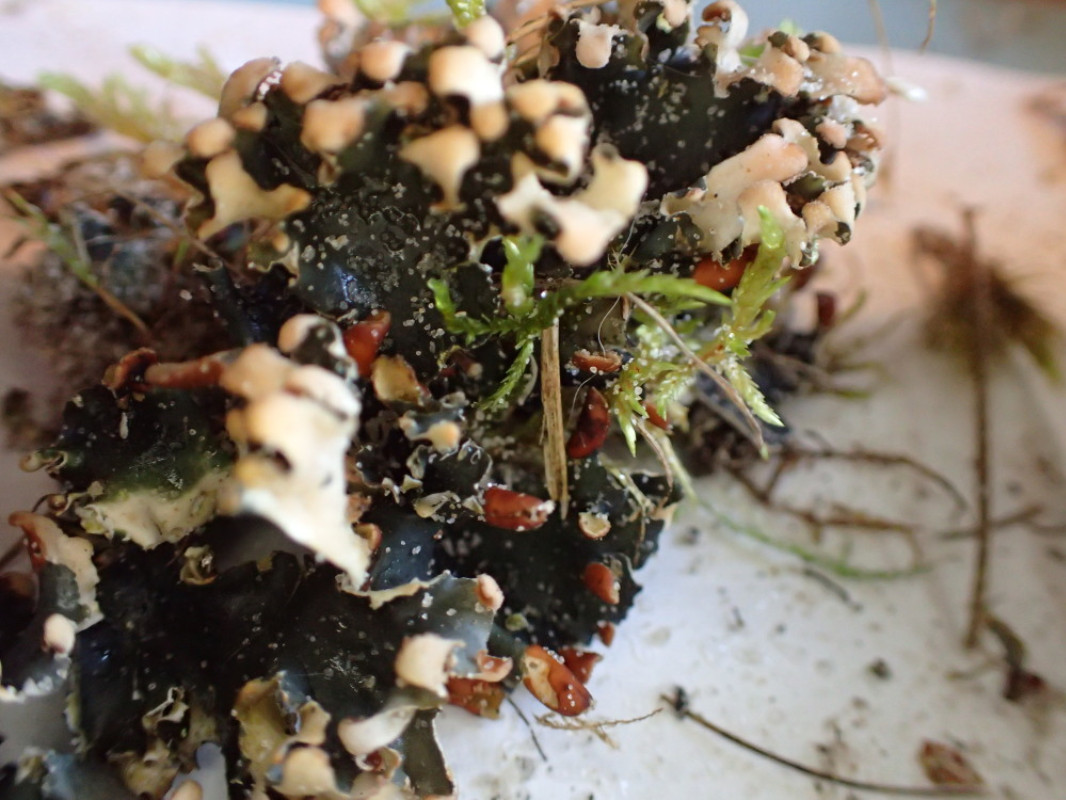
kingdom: Fungi
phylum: Ascomycota
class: Lecanoromycetes
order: Peltigerales
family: Peltigeraceae
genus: Peltigera
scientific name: Peltigera hymenina
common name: hinde-skjoldlav
